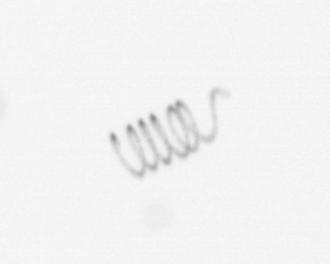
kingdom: Chromista
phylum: Ochrophyta
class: Bacillariophyceae
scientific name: Bacillariophyceae
